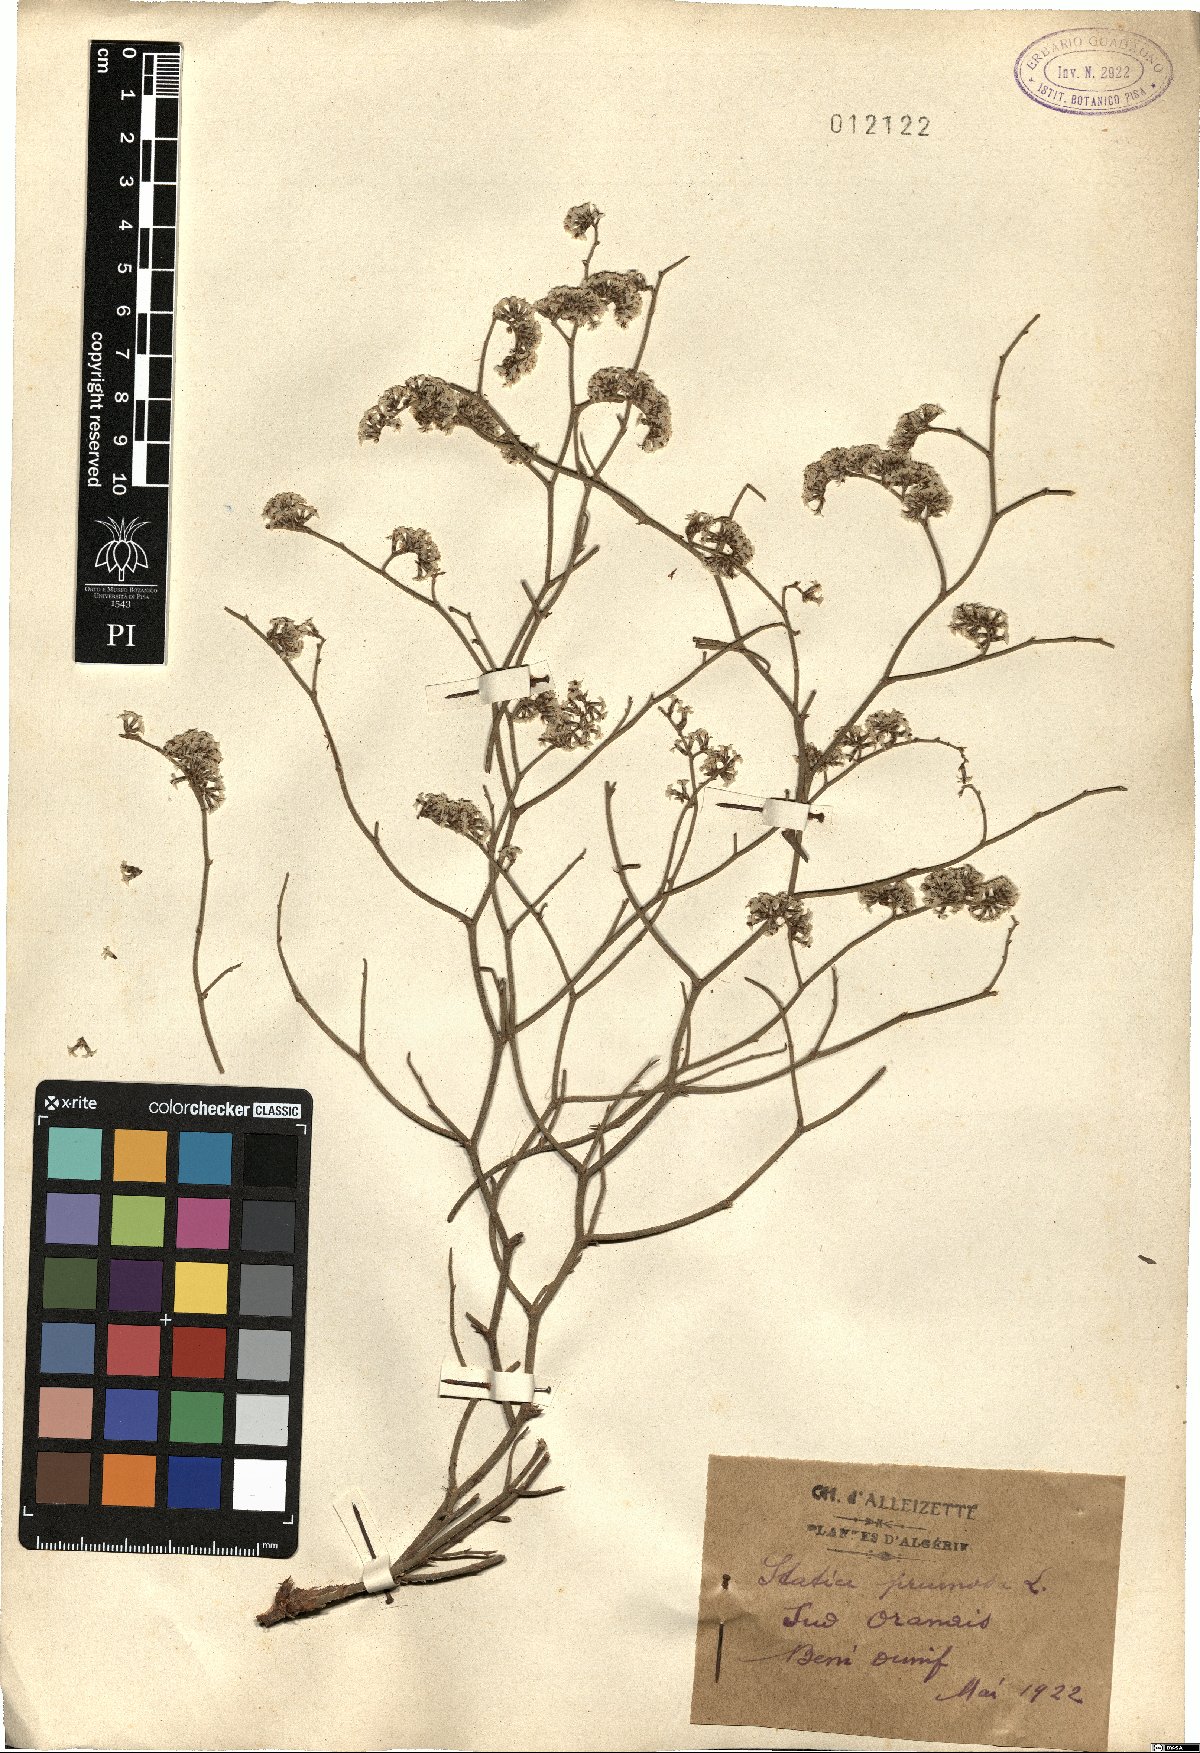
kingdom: Plantae
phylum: Tracheophyta
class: Magnoliopsida
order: Caryophyllales
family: Plumbaginaceae
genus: Limonium
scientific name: Limonium pruinosum
